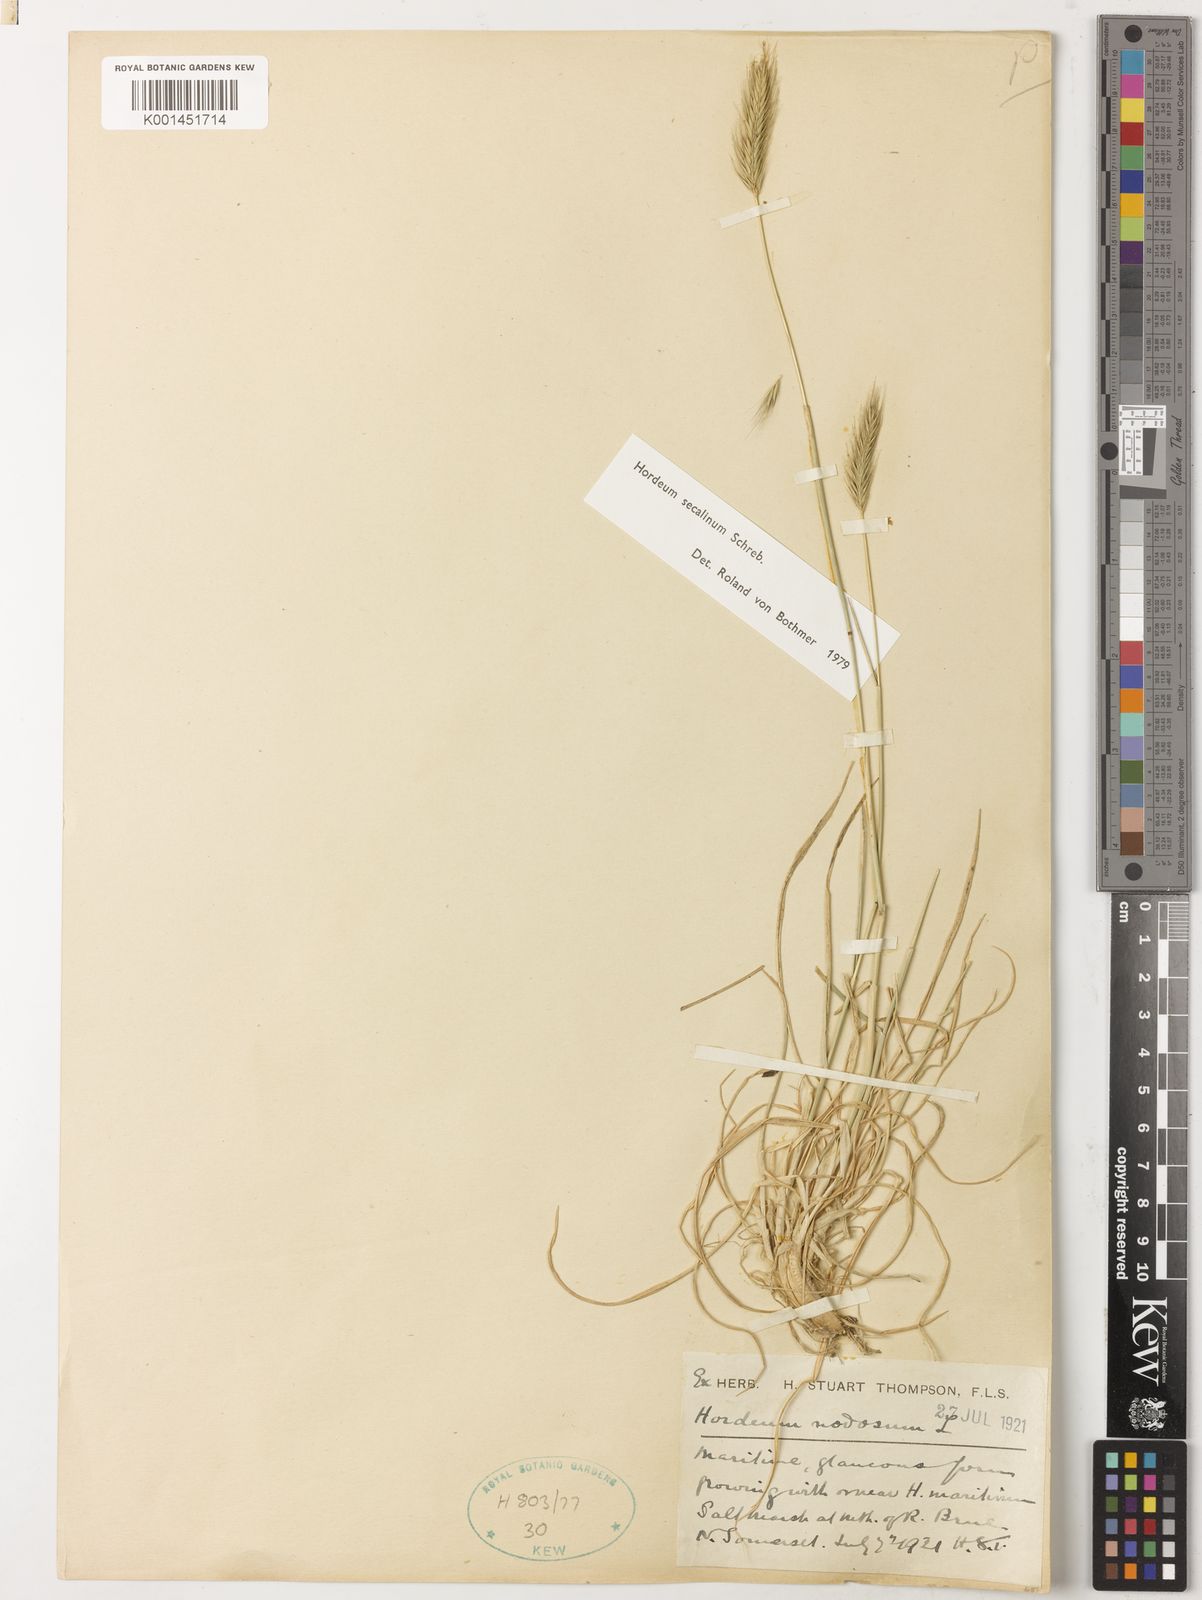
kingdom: Plantae
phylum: Tracheophyta
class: Liliopsida
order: Poales
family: Poaceae
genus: Hordeum
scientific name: Hordeum
